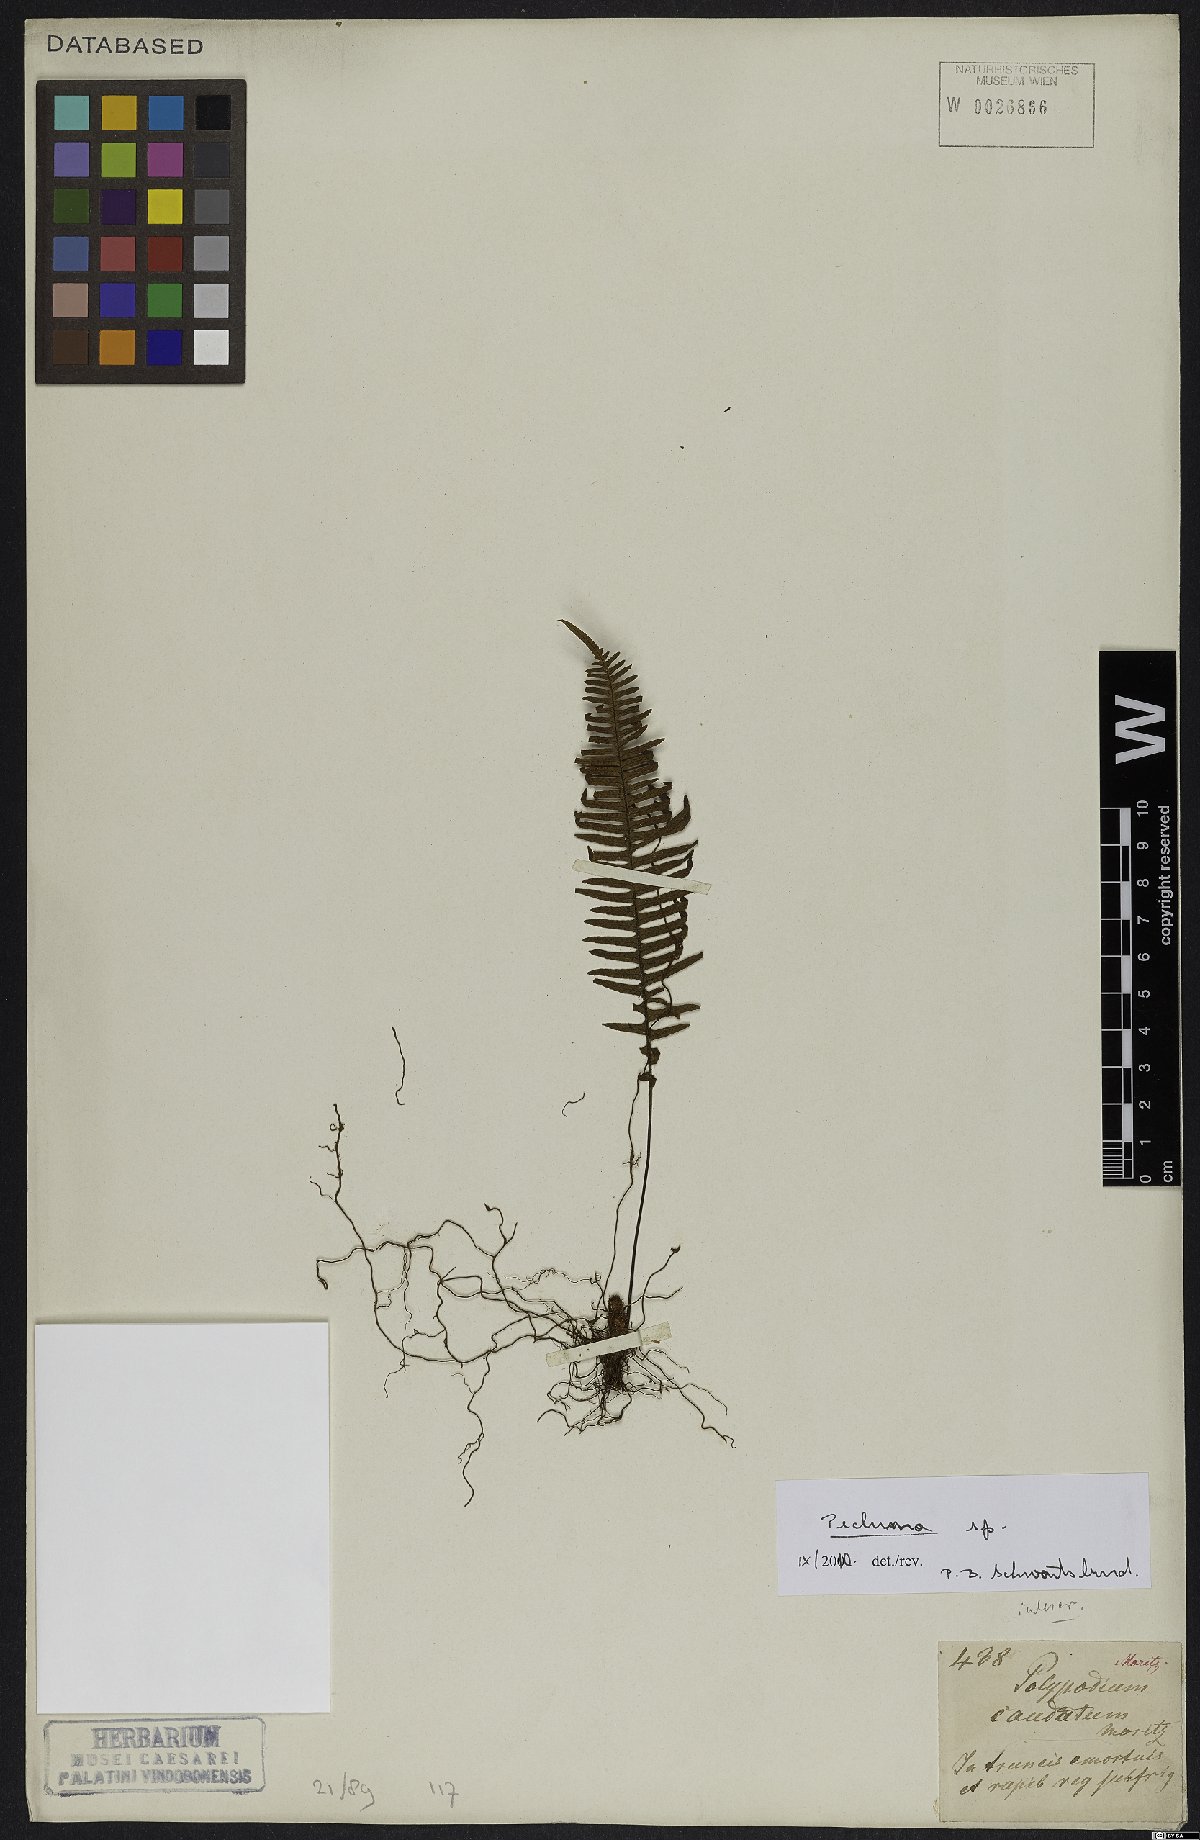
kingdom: Plantae
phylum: Tracheophyta
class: Polypodiopsida
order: Polypodiales
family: Polypodiaceae
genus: Pecluma
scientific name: Pecluma
